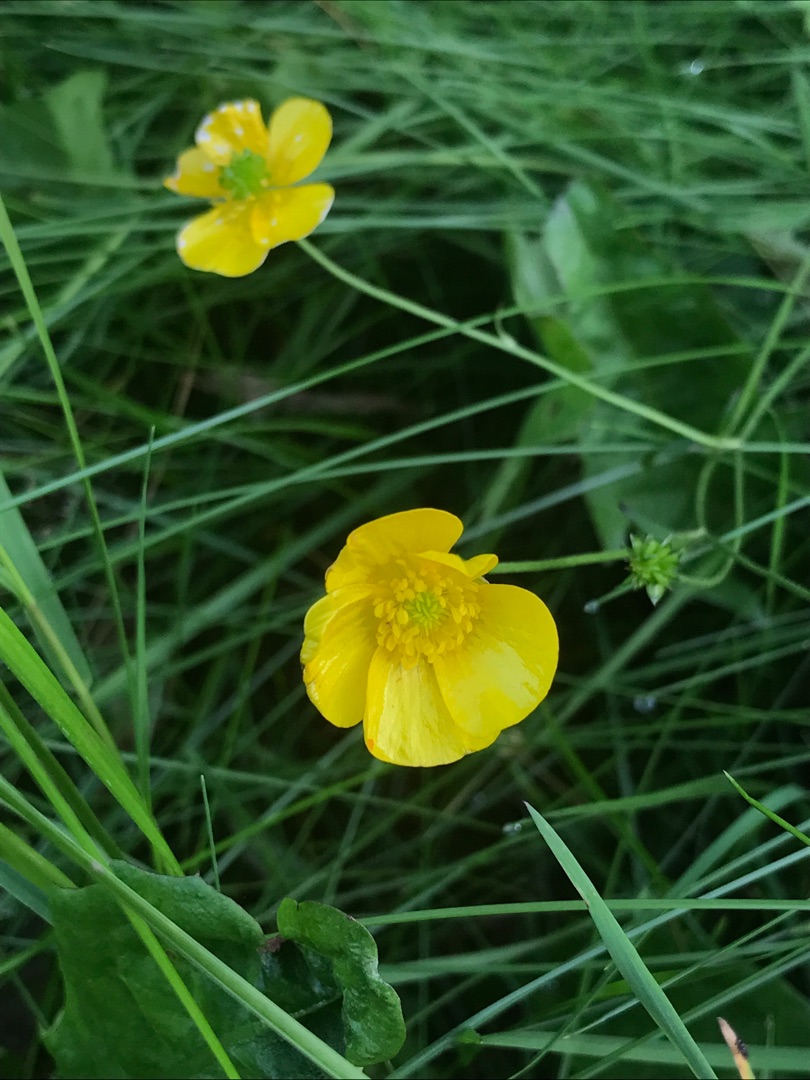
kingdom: Plantae
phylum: Tracheophyta
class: Magnoliopsida
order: Ranunculales
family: Ranunculaceae
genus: Ranunculus
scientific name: Ranunculus
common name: Ranunkelslægten
